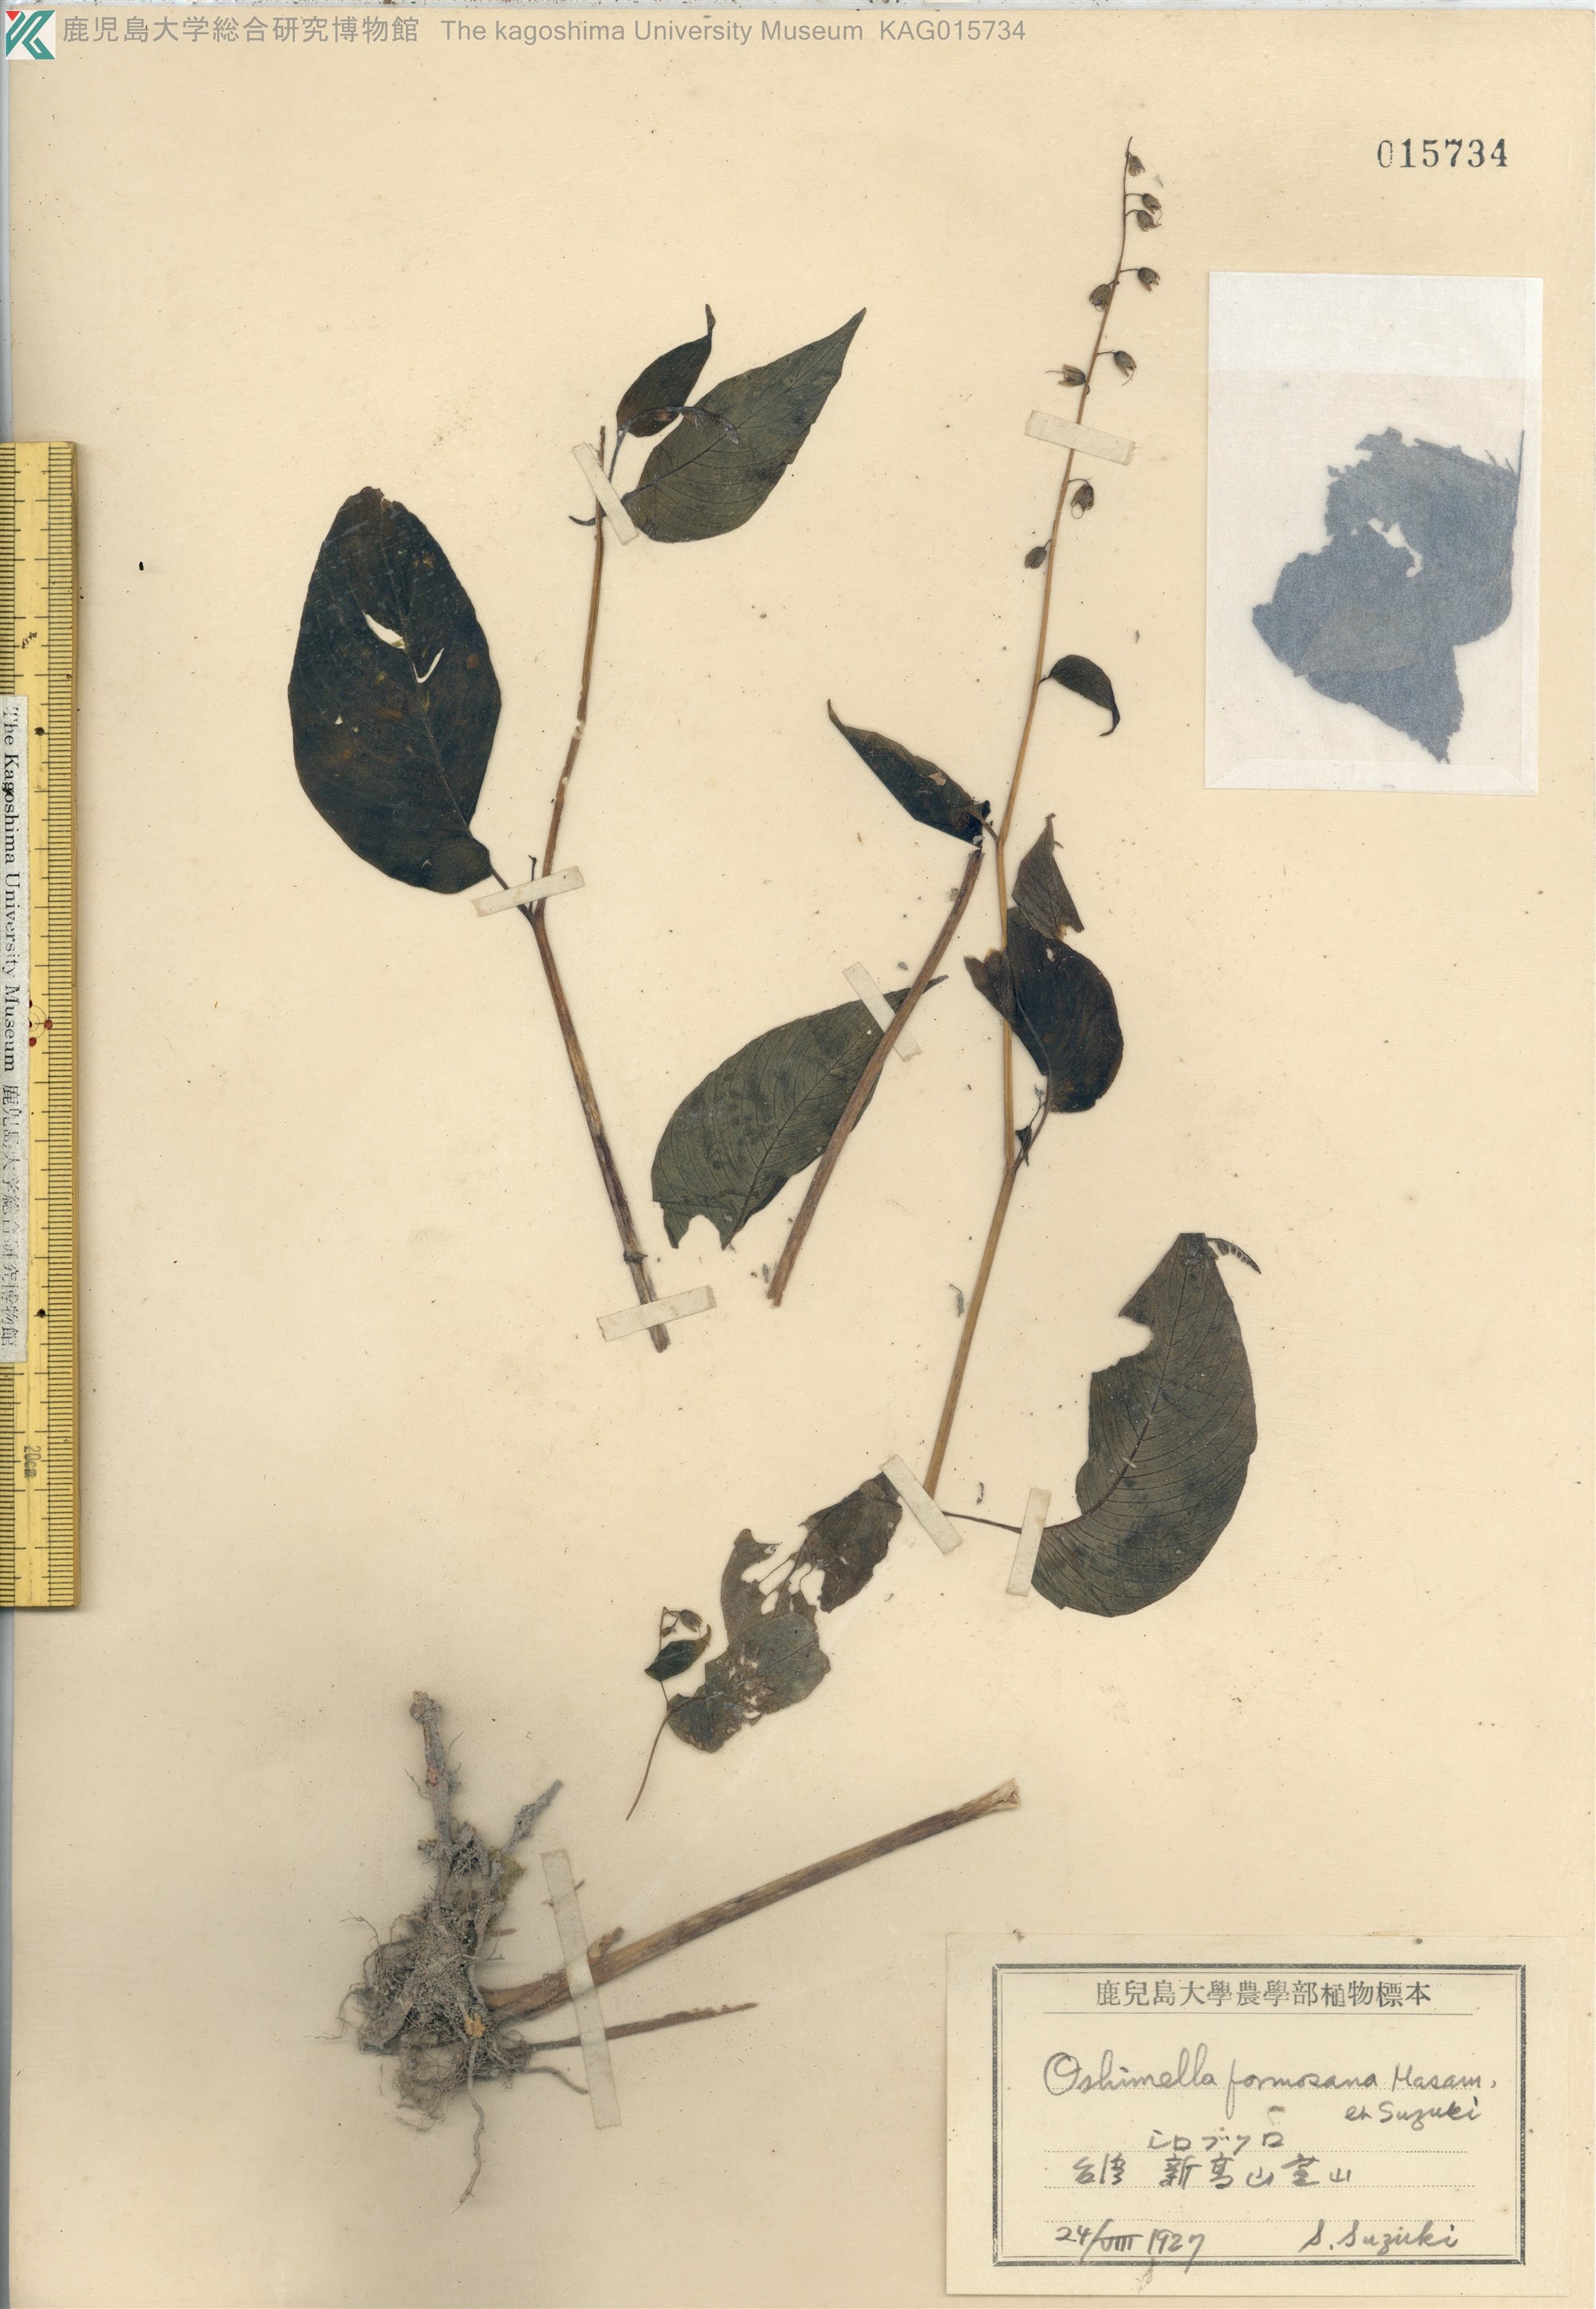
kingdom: Plantae
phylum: Tracheophyta
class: Magnoliopsida
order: Lamiales
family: Gesneriaceae
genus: Rhynchoglossum
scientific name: Rhynchoglossum obliquum
